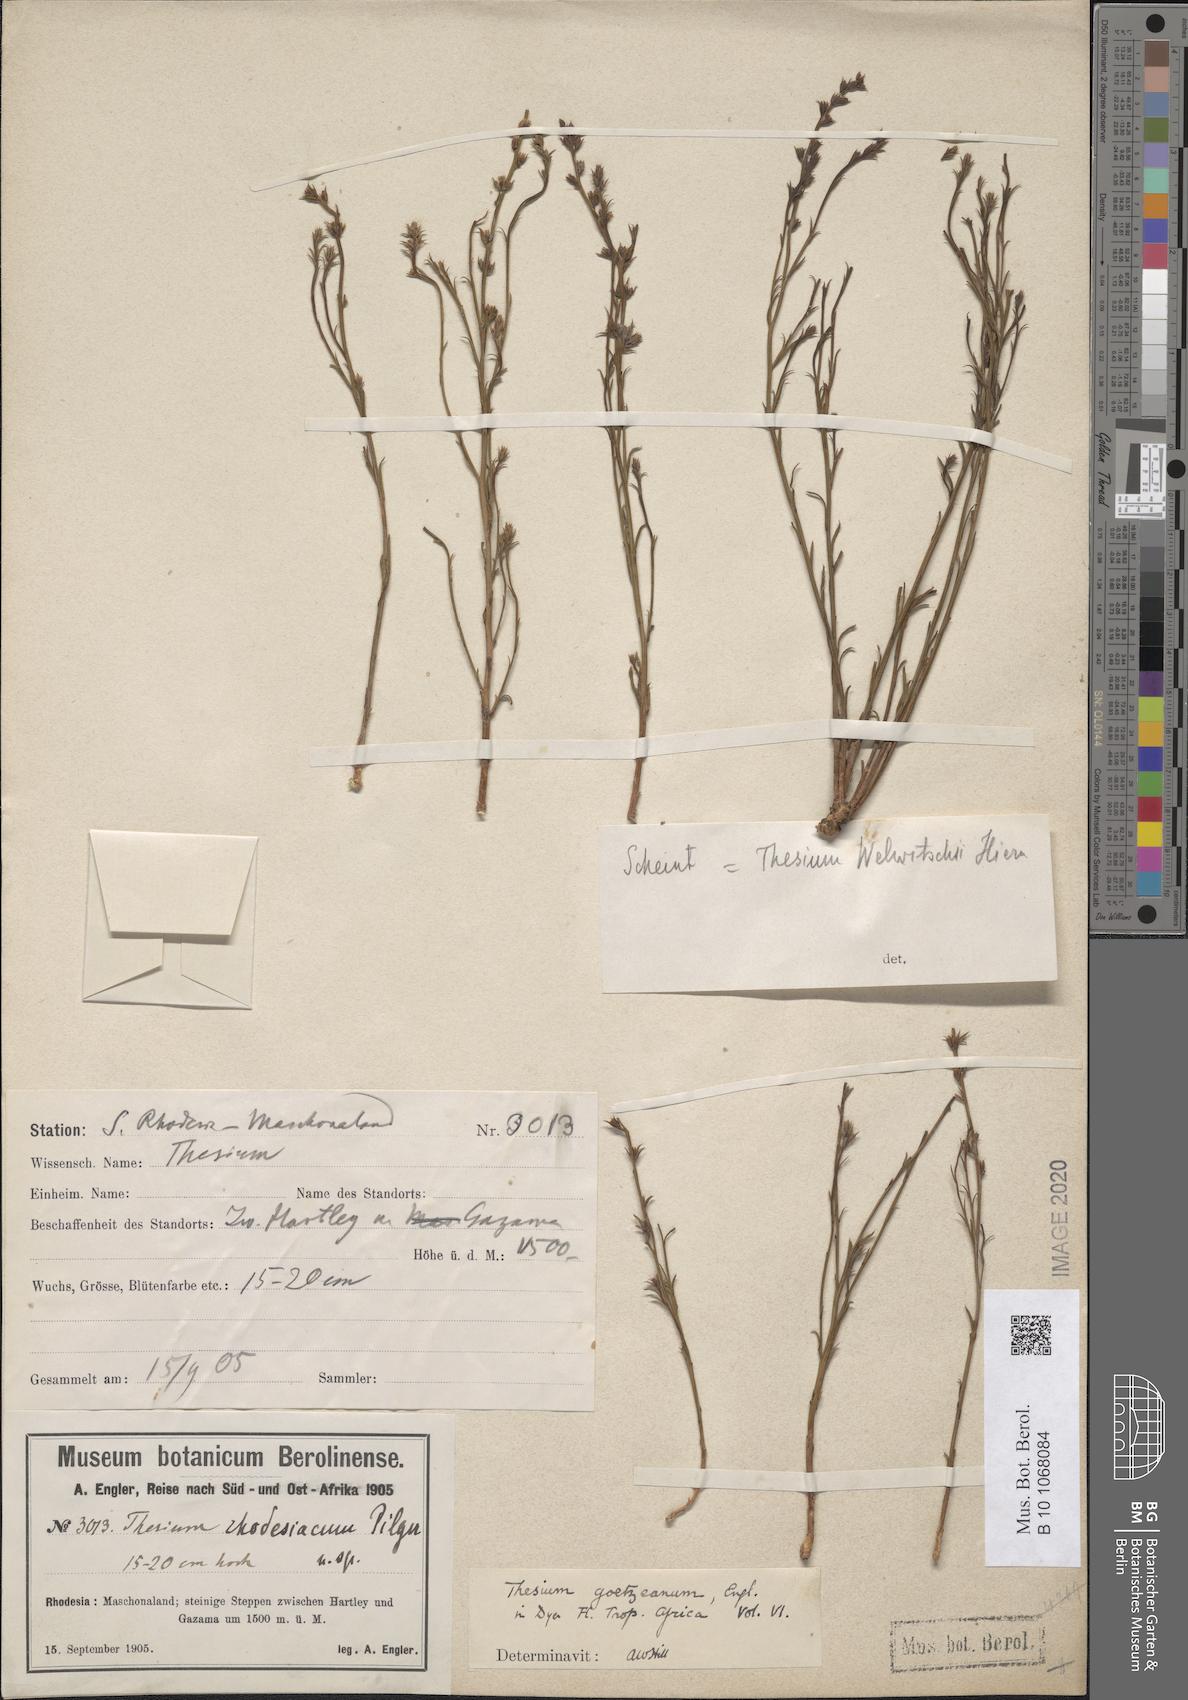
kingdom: Plantae
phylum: Tracheophyta
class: Magnoliopsida
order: Santalales
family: Thesiaceae
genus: Thesium
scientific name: Thesium goetzeanum
